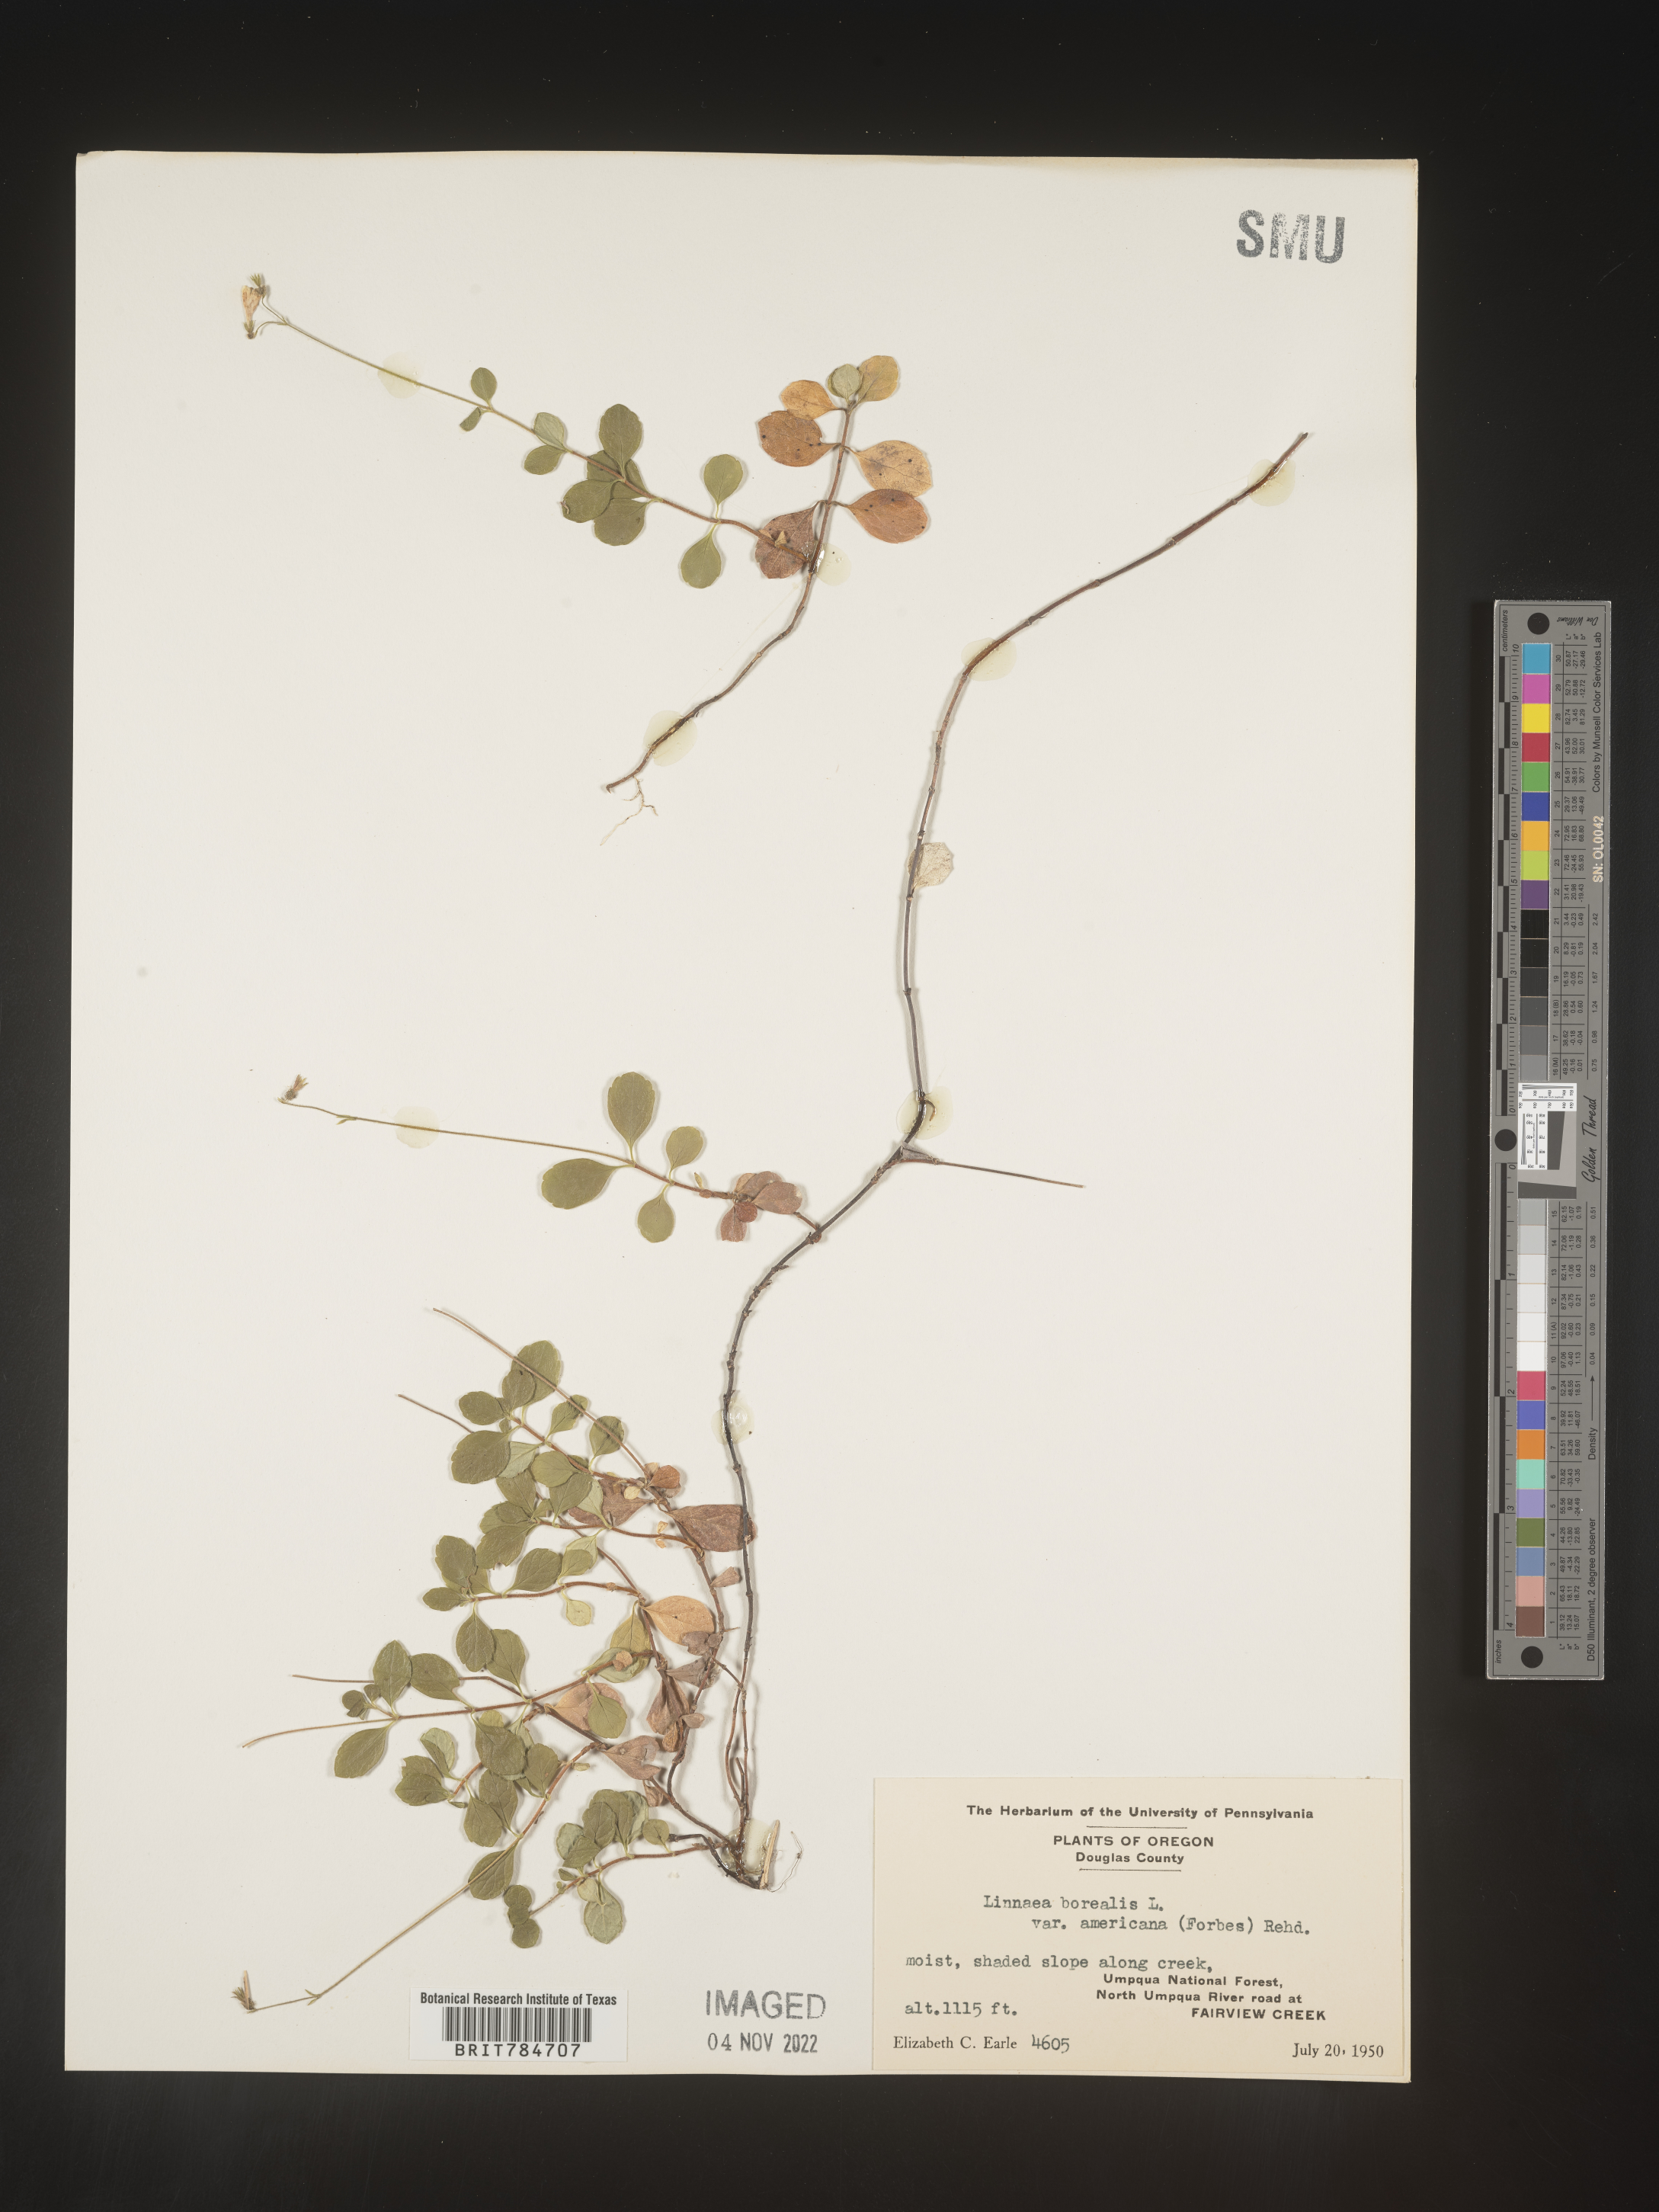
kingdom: Plantae
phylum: Tracheophyta
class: Magnoliopsida
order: Dipsacales
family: Caprifoliaceae
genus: Linnaea
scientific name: Linnaea borealis
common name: Twinflower
